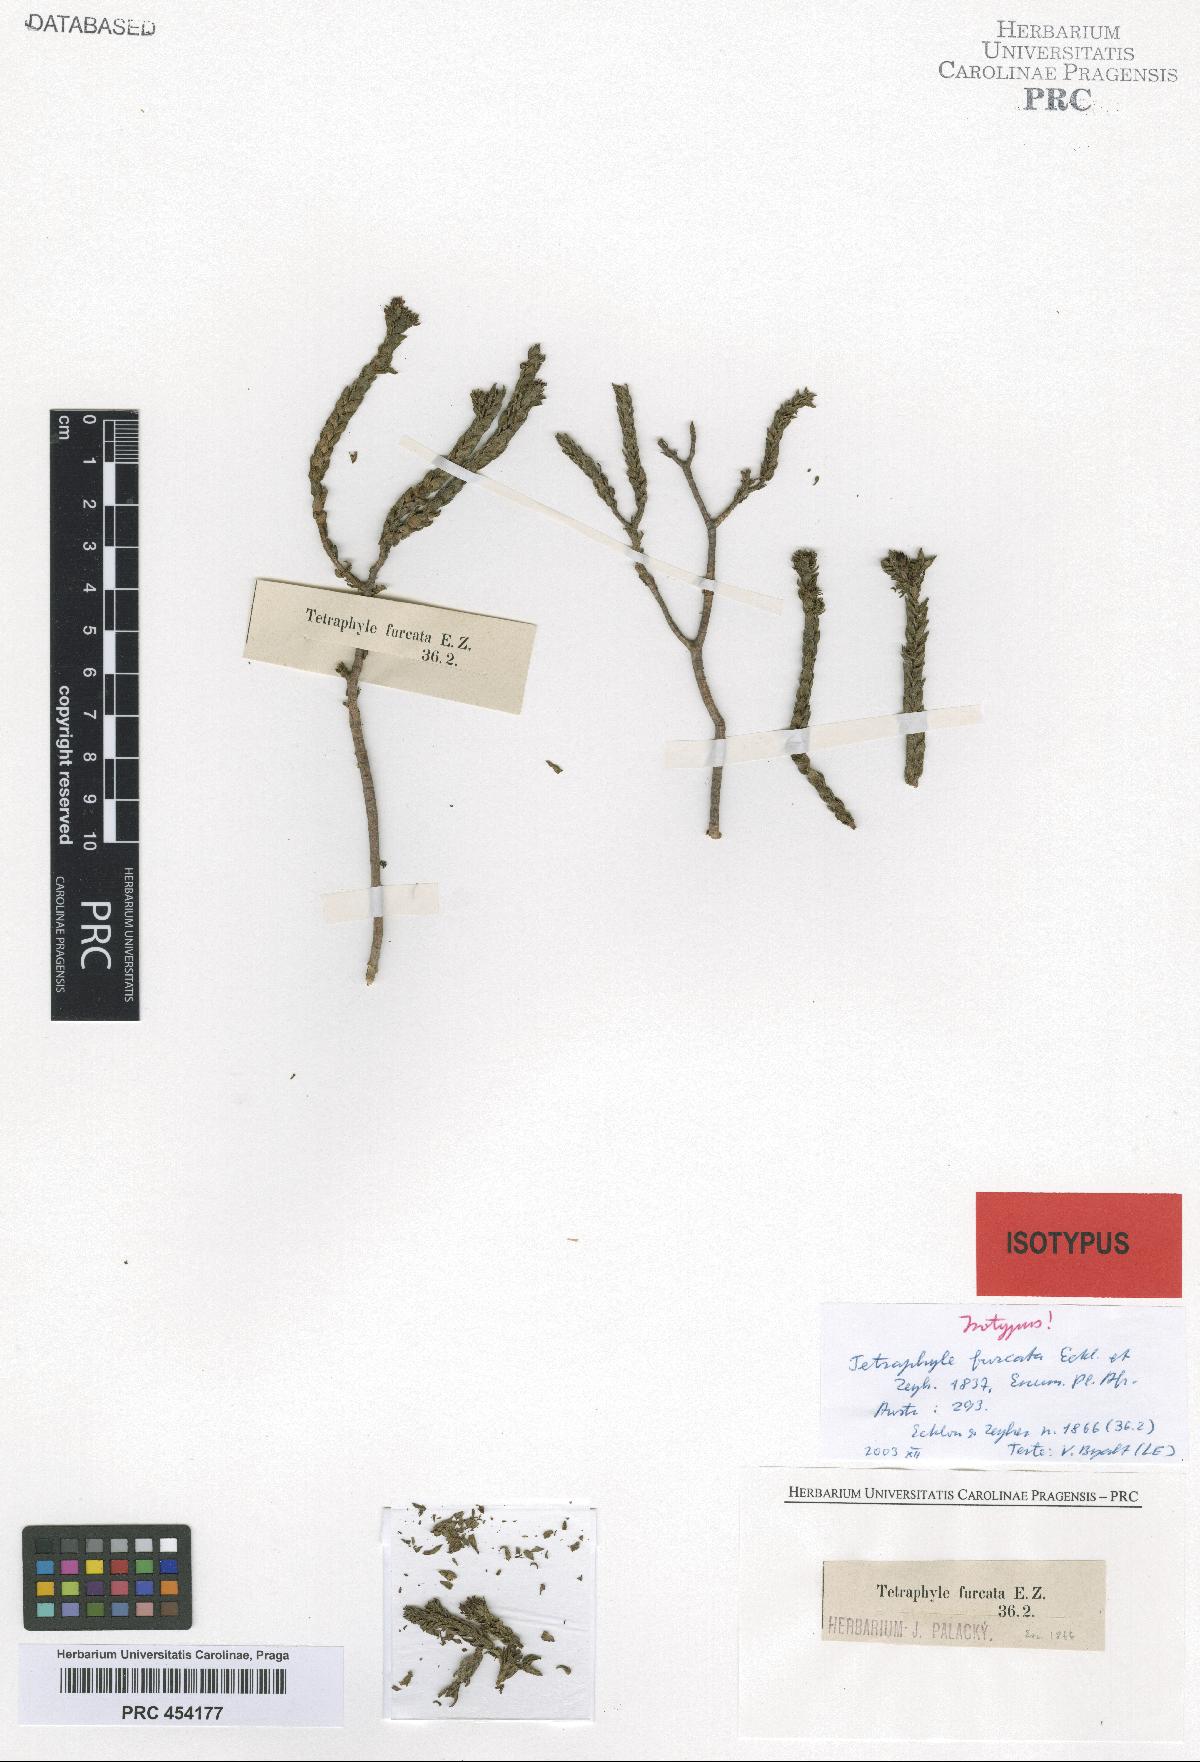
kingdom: Plantae
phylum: Tracheophyta
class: Magnoliopsida
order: Saxifragales
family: Crassulaceae
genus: Crassula
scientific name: Crassula ericoides
